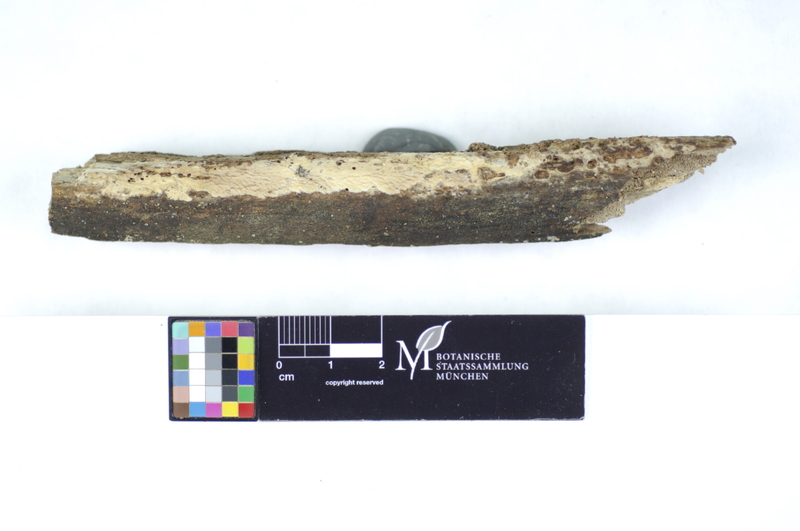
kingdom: Fungi
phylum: Basidiomycota
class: Agaricomycetes
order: Polyporales
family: Hyphodermataceae
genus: Hyphoderma
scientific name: Hyphoderma roseocremeum
